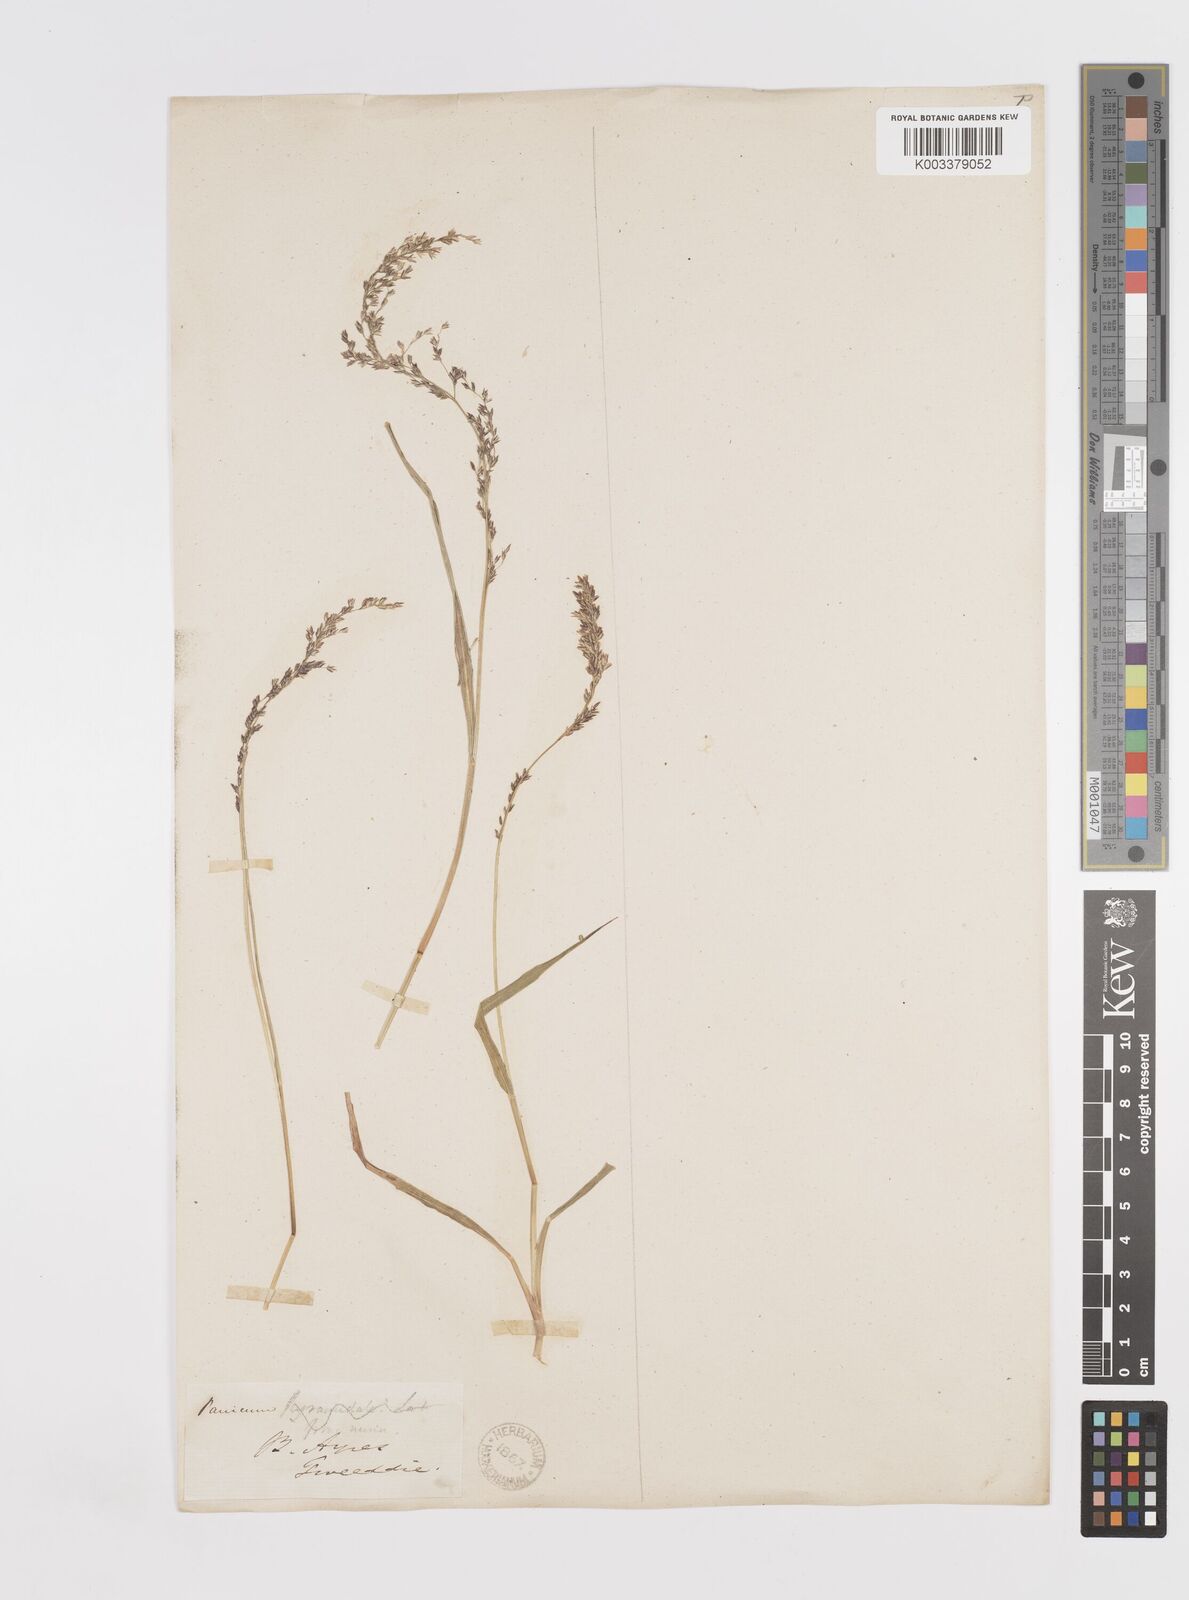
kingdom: Plantae
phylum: Tracheophyta
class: Liliopsida
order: Poales
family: Poaceae
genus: Steinchisma
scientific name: Steinchisma hians
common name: Gaping panic grass
